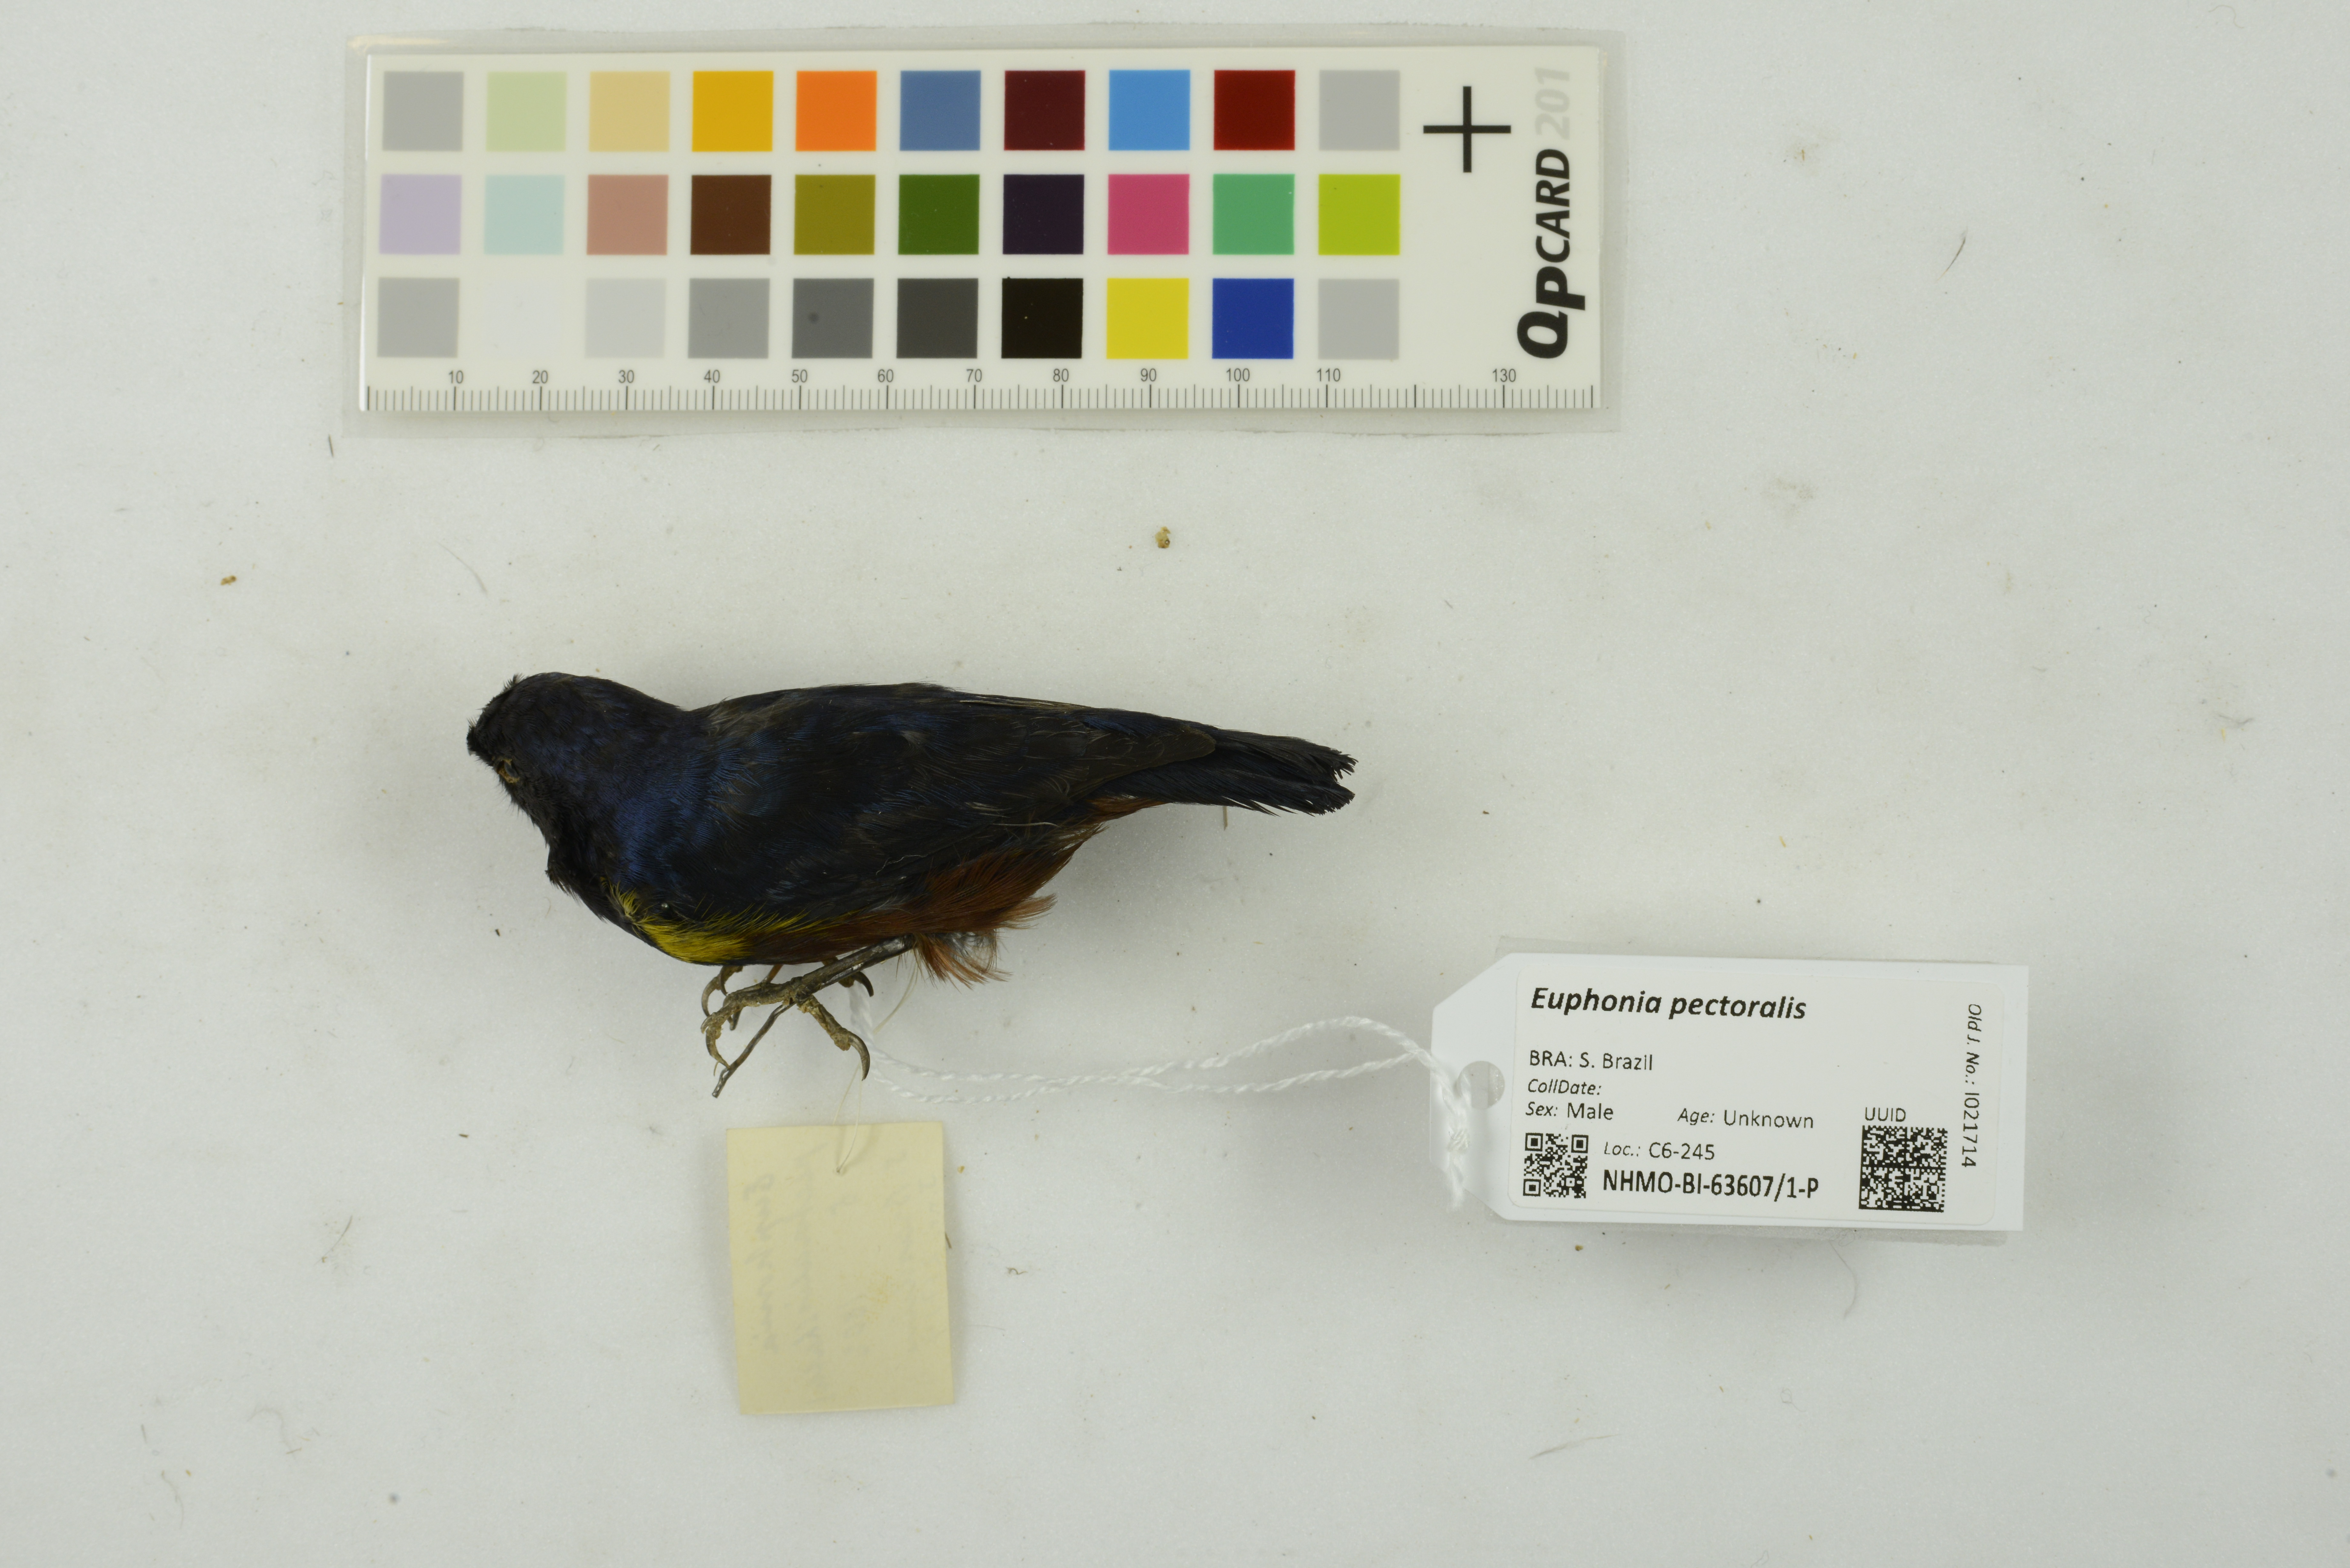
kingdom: Animalia
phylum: Chordata
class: Aves
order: Passeriformes
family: Fringillidae
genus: Euphonia
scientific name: Euphonia pectoralis
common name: Chestnut-bellied euphonia
